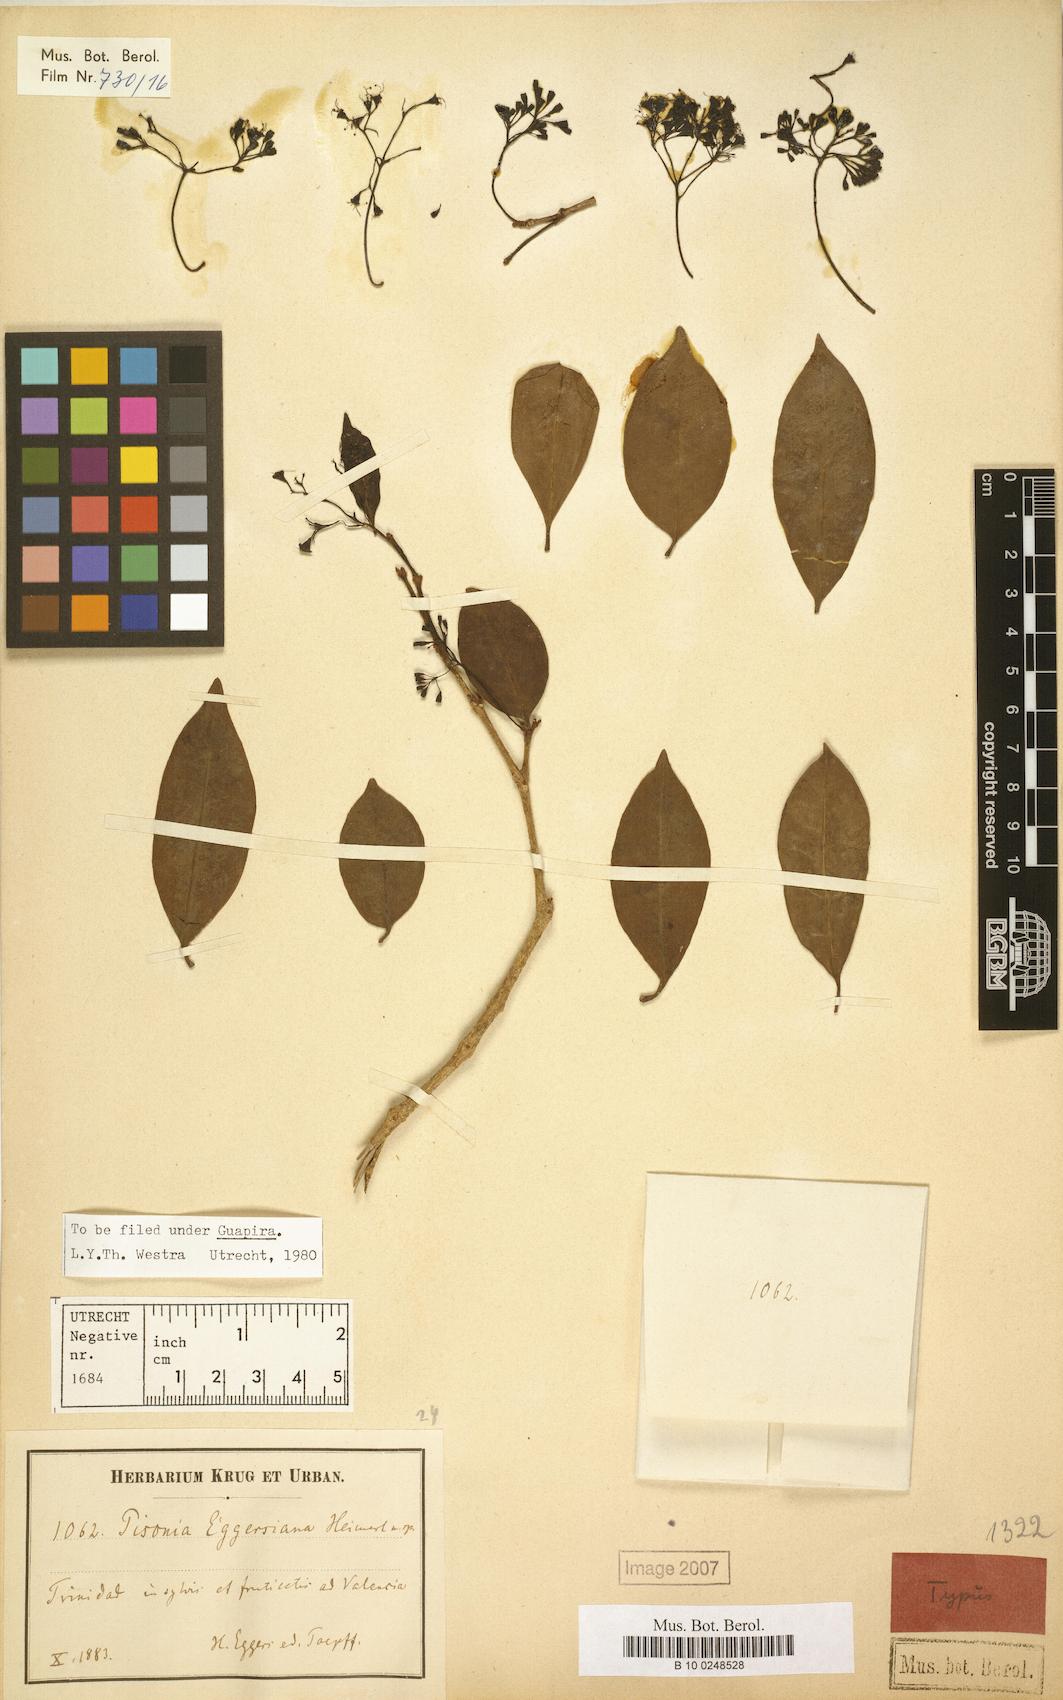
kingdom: Plantae
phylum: Tracheophyta
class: Magnoliopsida
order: Caryophyllales
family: Nyctaginaceae
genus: Guapira
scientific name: Guapira eggersiana
